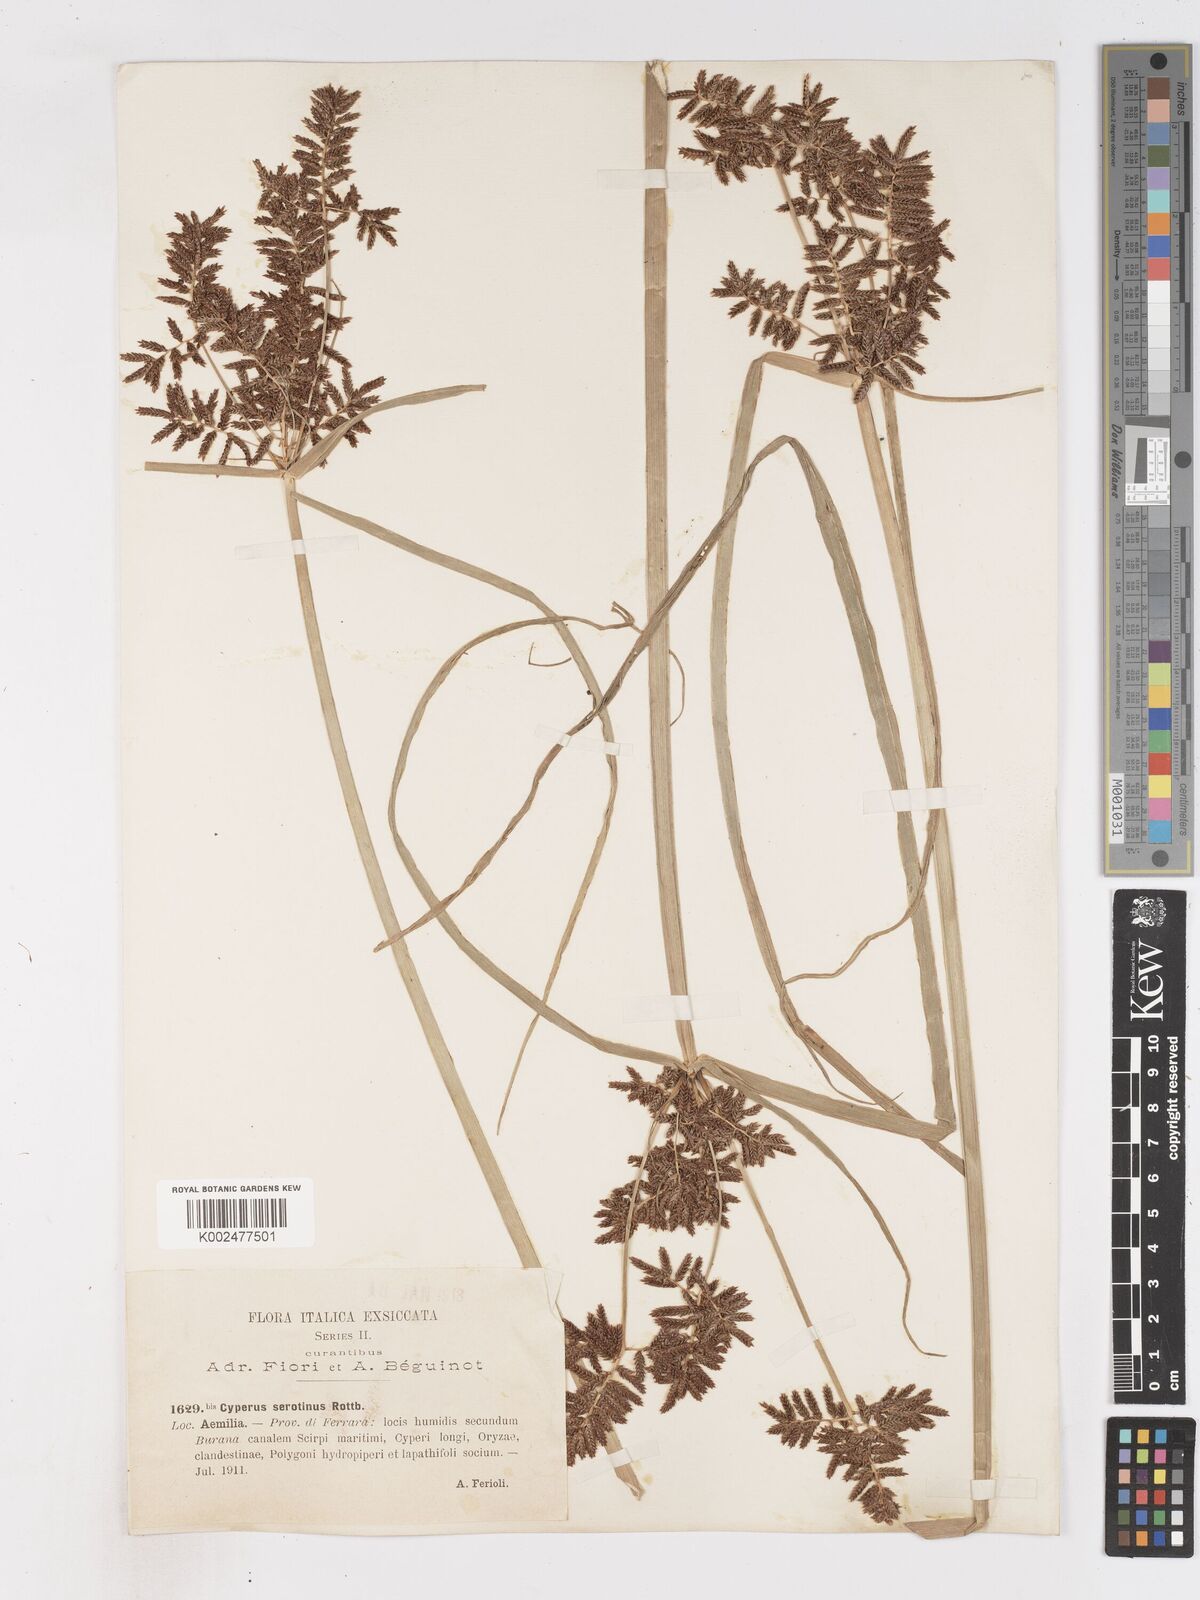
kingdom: Plantae
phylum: Tracheophyta
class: Liliopsida
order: Poales
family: Cyperaceae
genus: Cyperus
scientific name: Cyperus serotinus
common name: Tidalmarsh flatsedge
